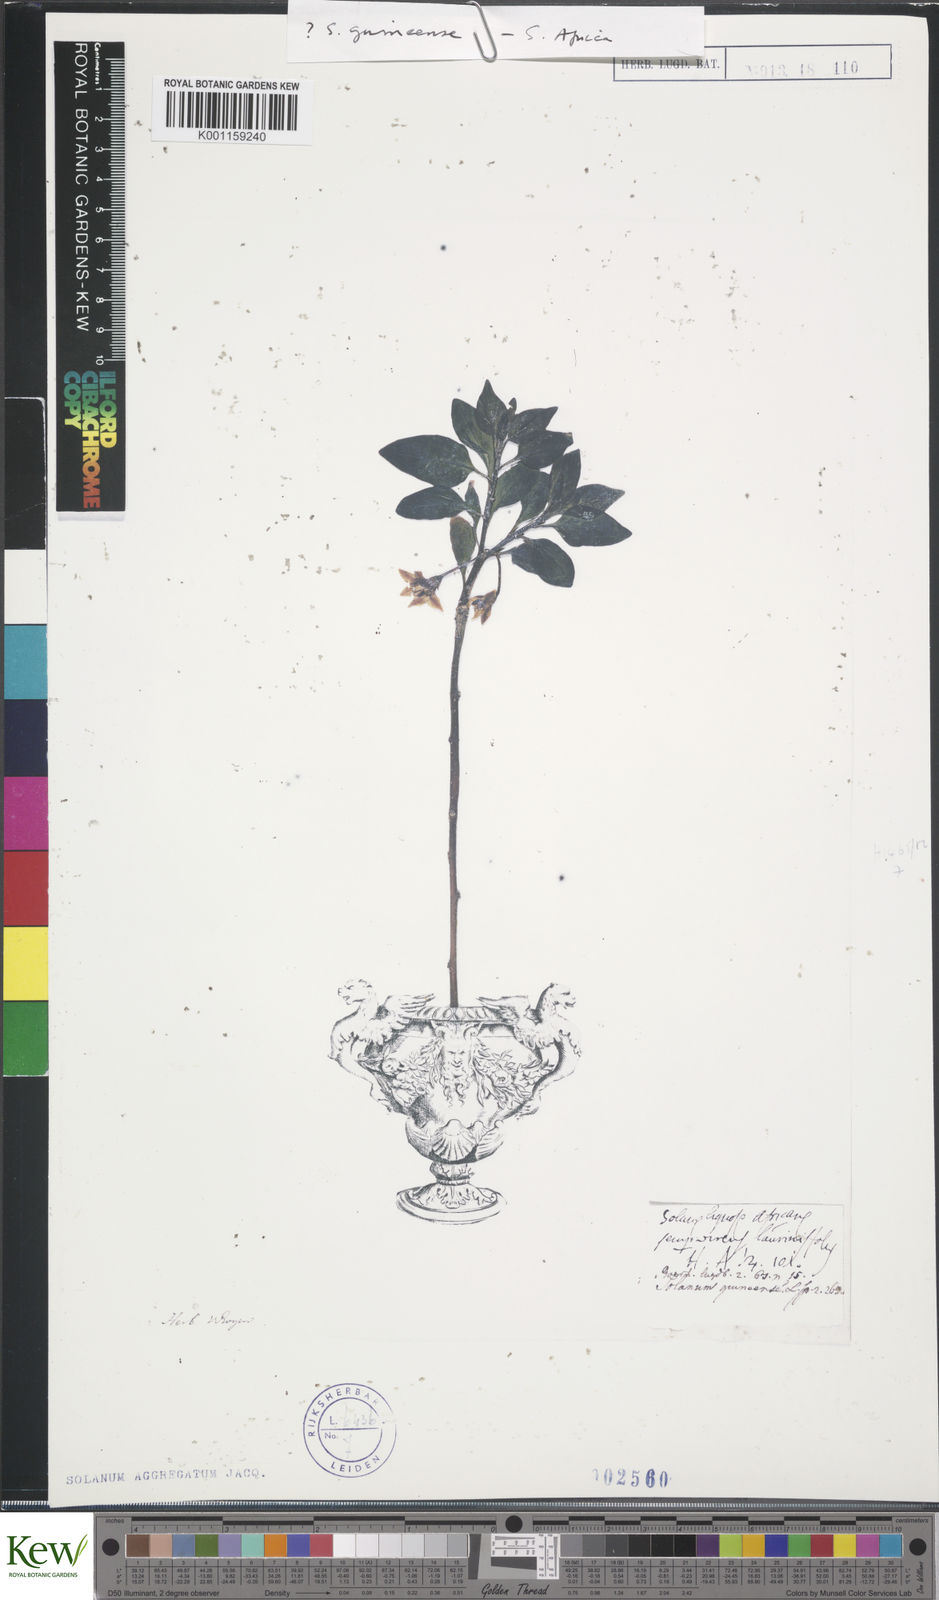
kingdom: Plantae
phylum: Tracheophyta
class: Magnoliopsida
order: Solanales
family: Solanaceae
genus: Solanum
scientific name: Solanum guineense
